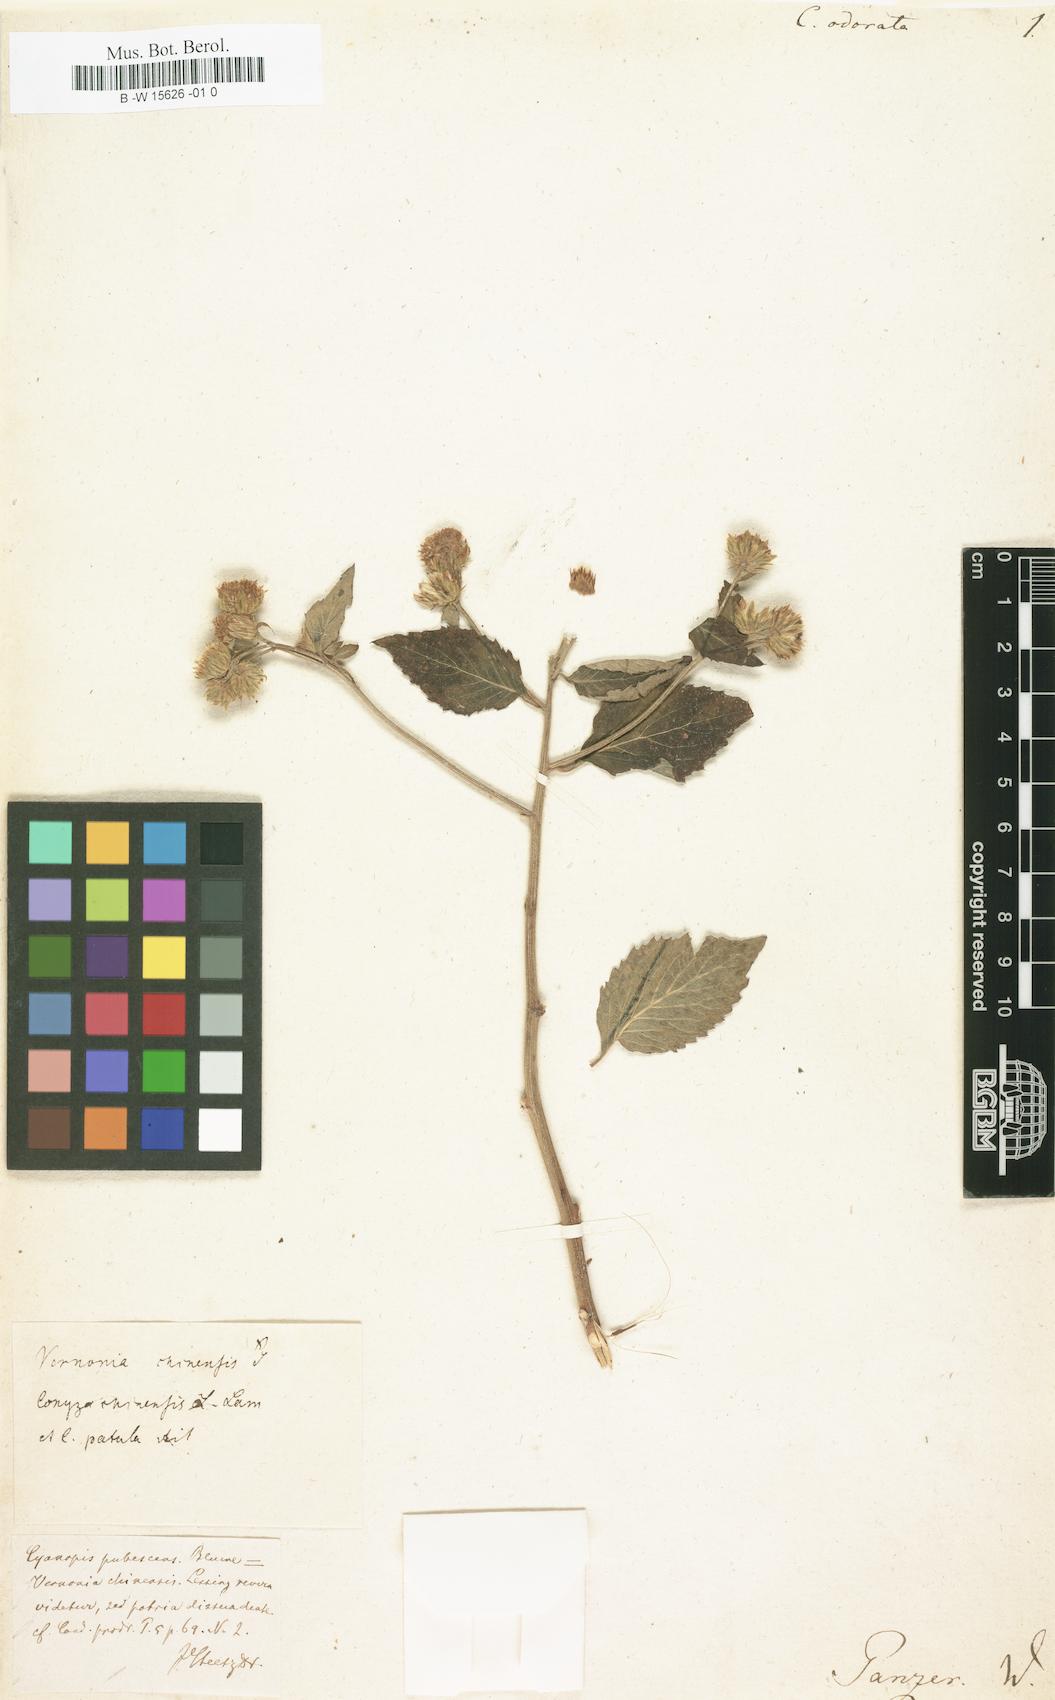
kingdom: Plantae
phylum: Tracheophyta
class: Magnoliopsida
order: Asterales
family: Asteraceae
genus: Pluchea
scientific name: Pluchea odorata
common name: Saltmarsh fleabane
